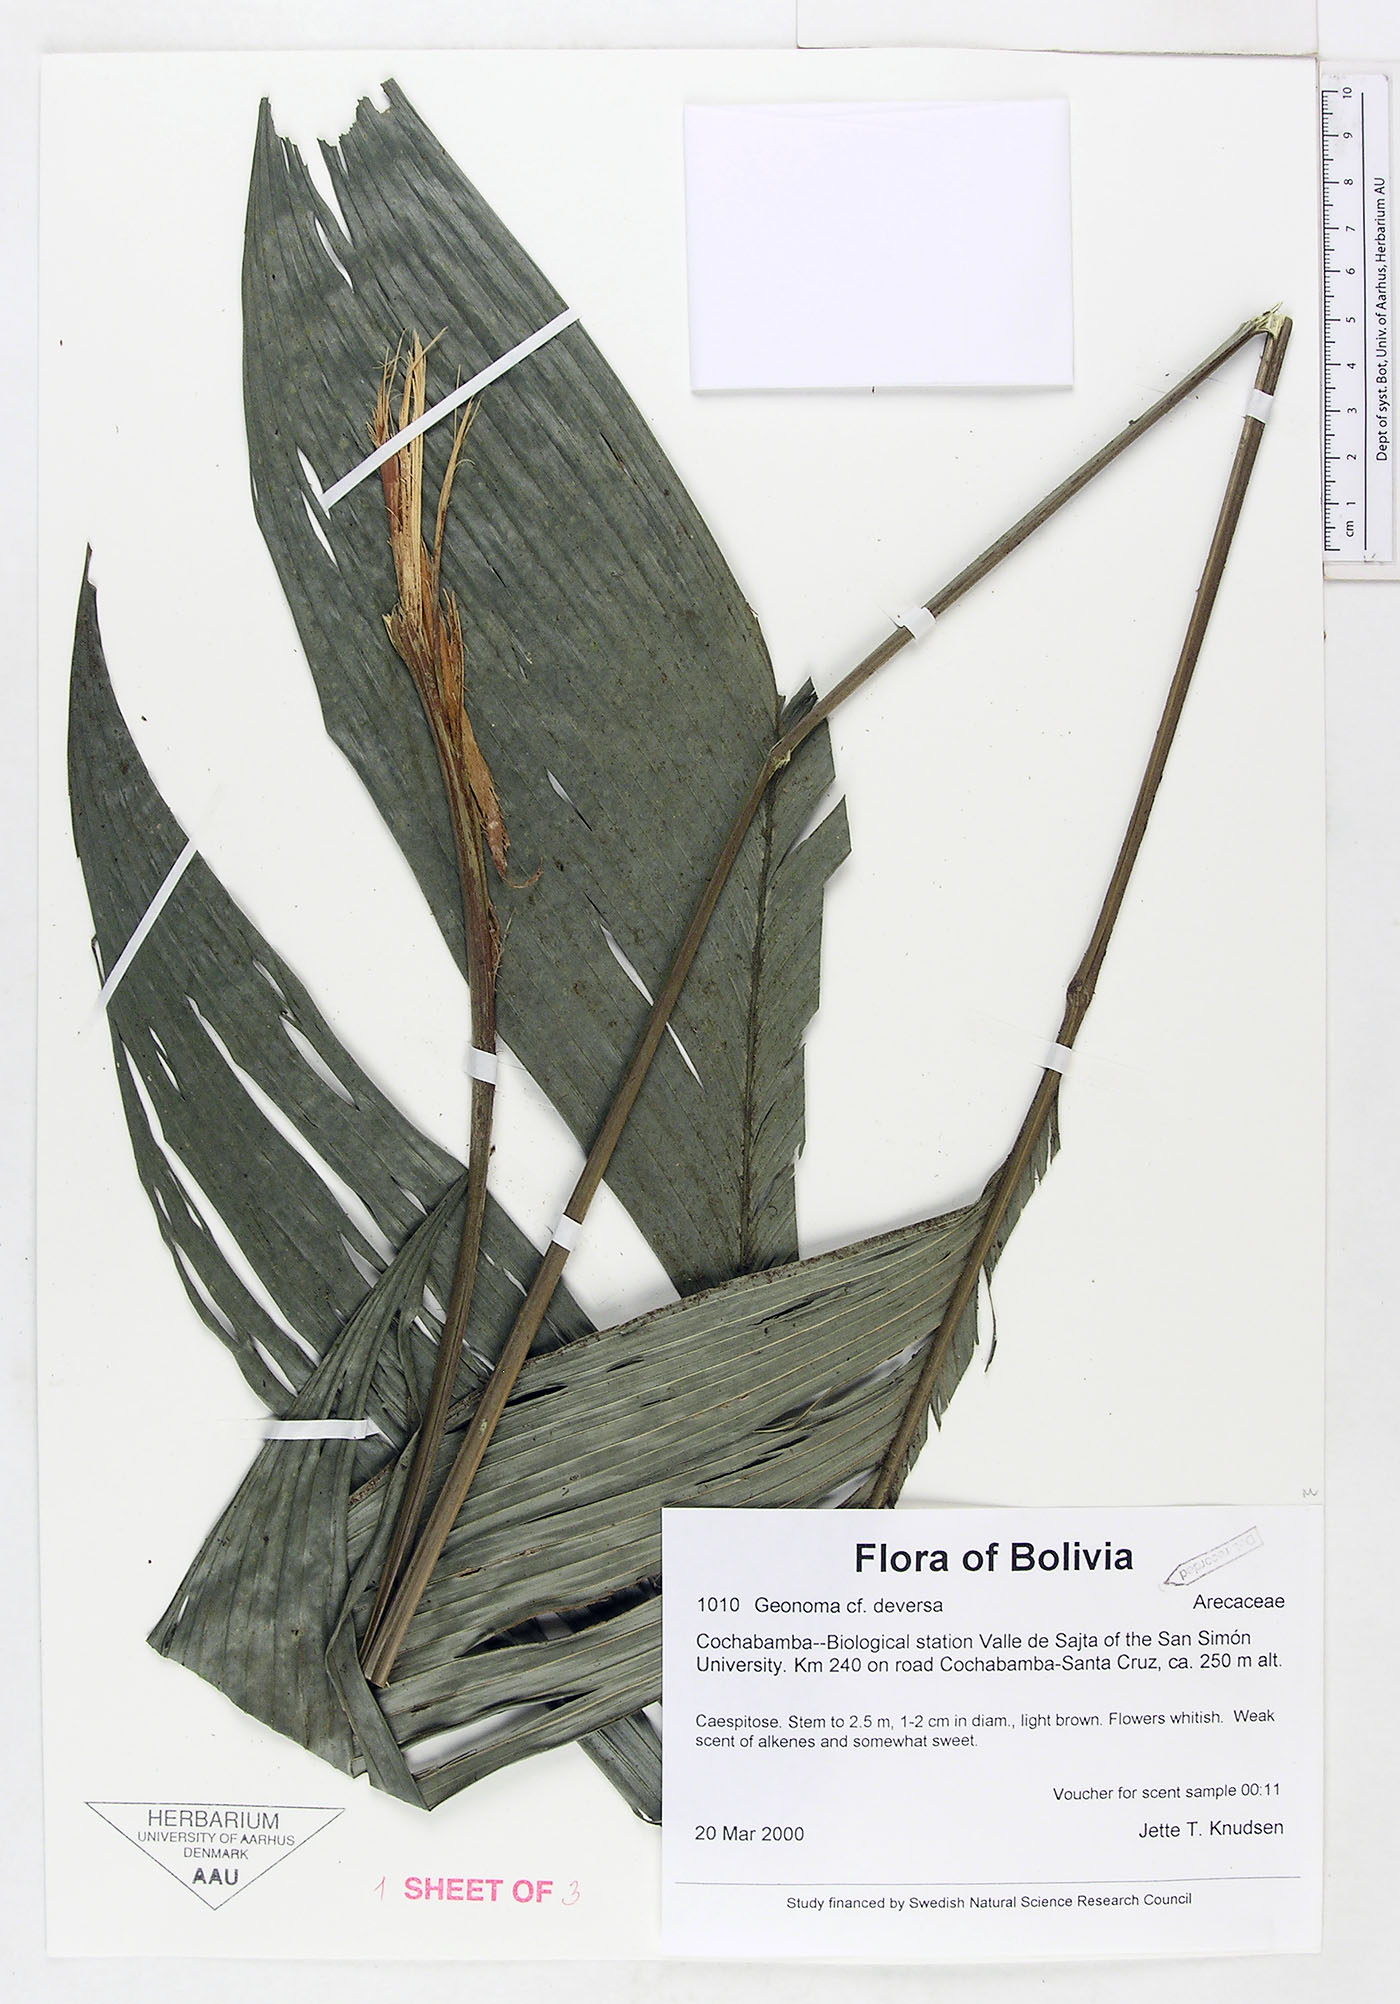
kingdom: Plantae
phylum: Tracheophyta
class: Liliopsida
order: Arecales
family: Arecaceae
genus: Geonoma
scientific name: Geonoma deversa
